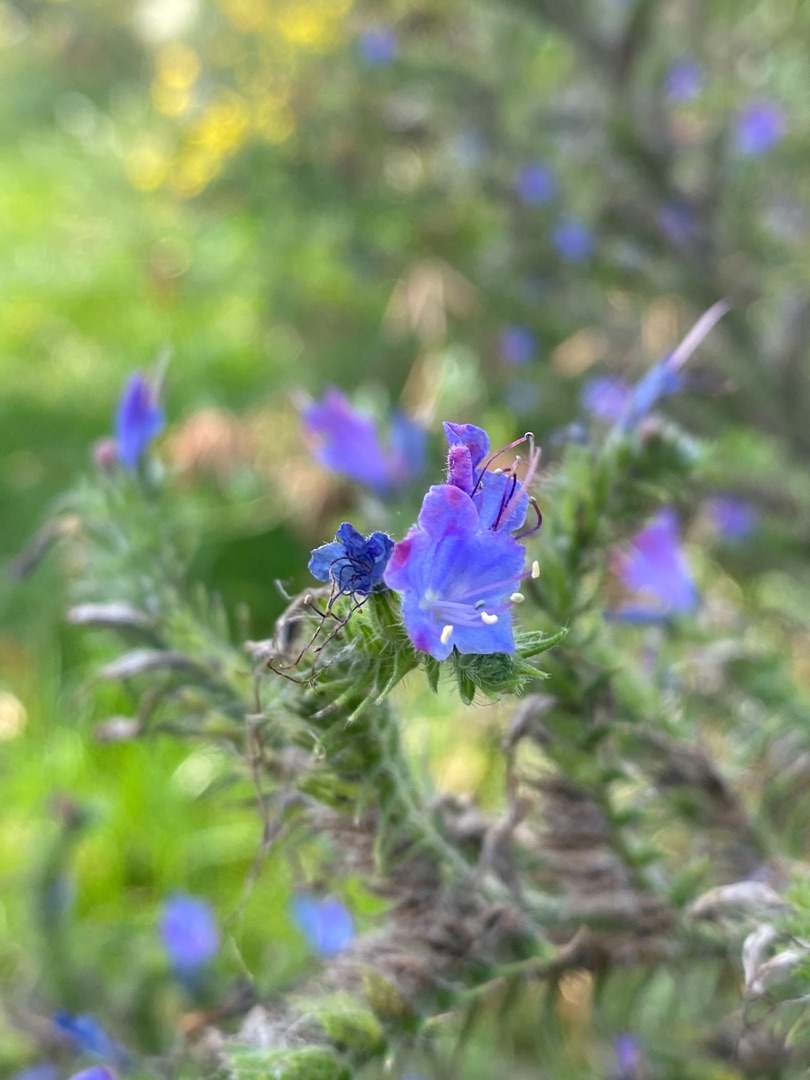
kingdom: Plantae
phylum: Tracheophyta
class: Magnoliopsida
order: Boraginales
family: Boraginaceae
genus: Echium
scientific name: Echium vulgare
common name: Slangehoved
